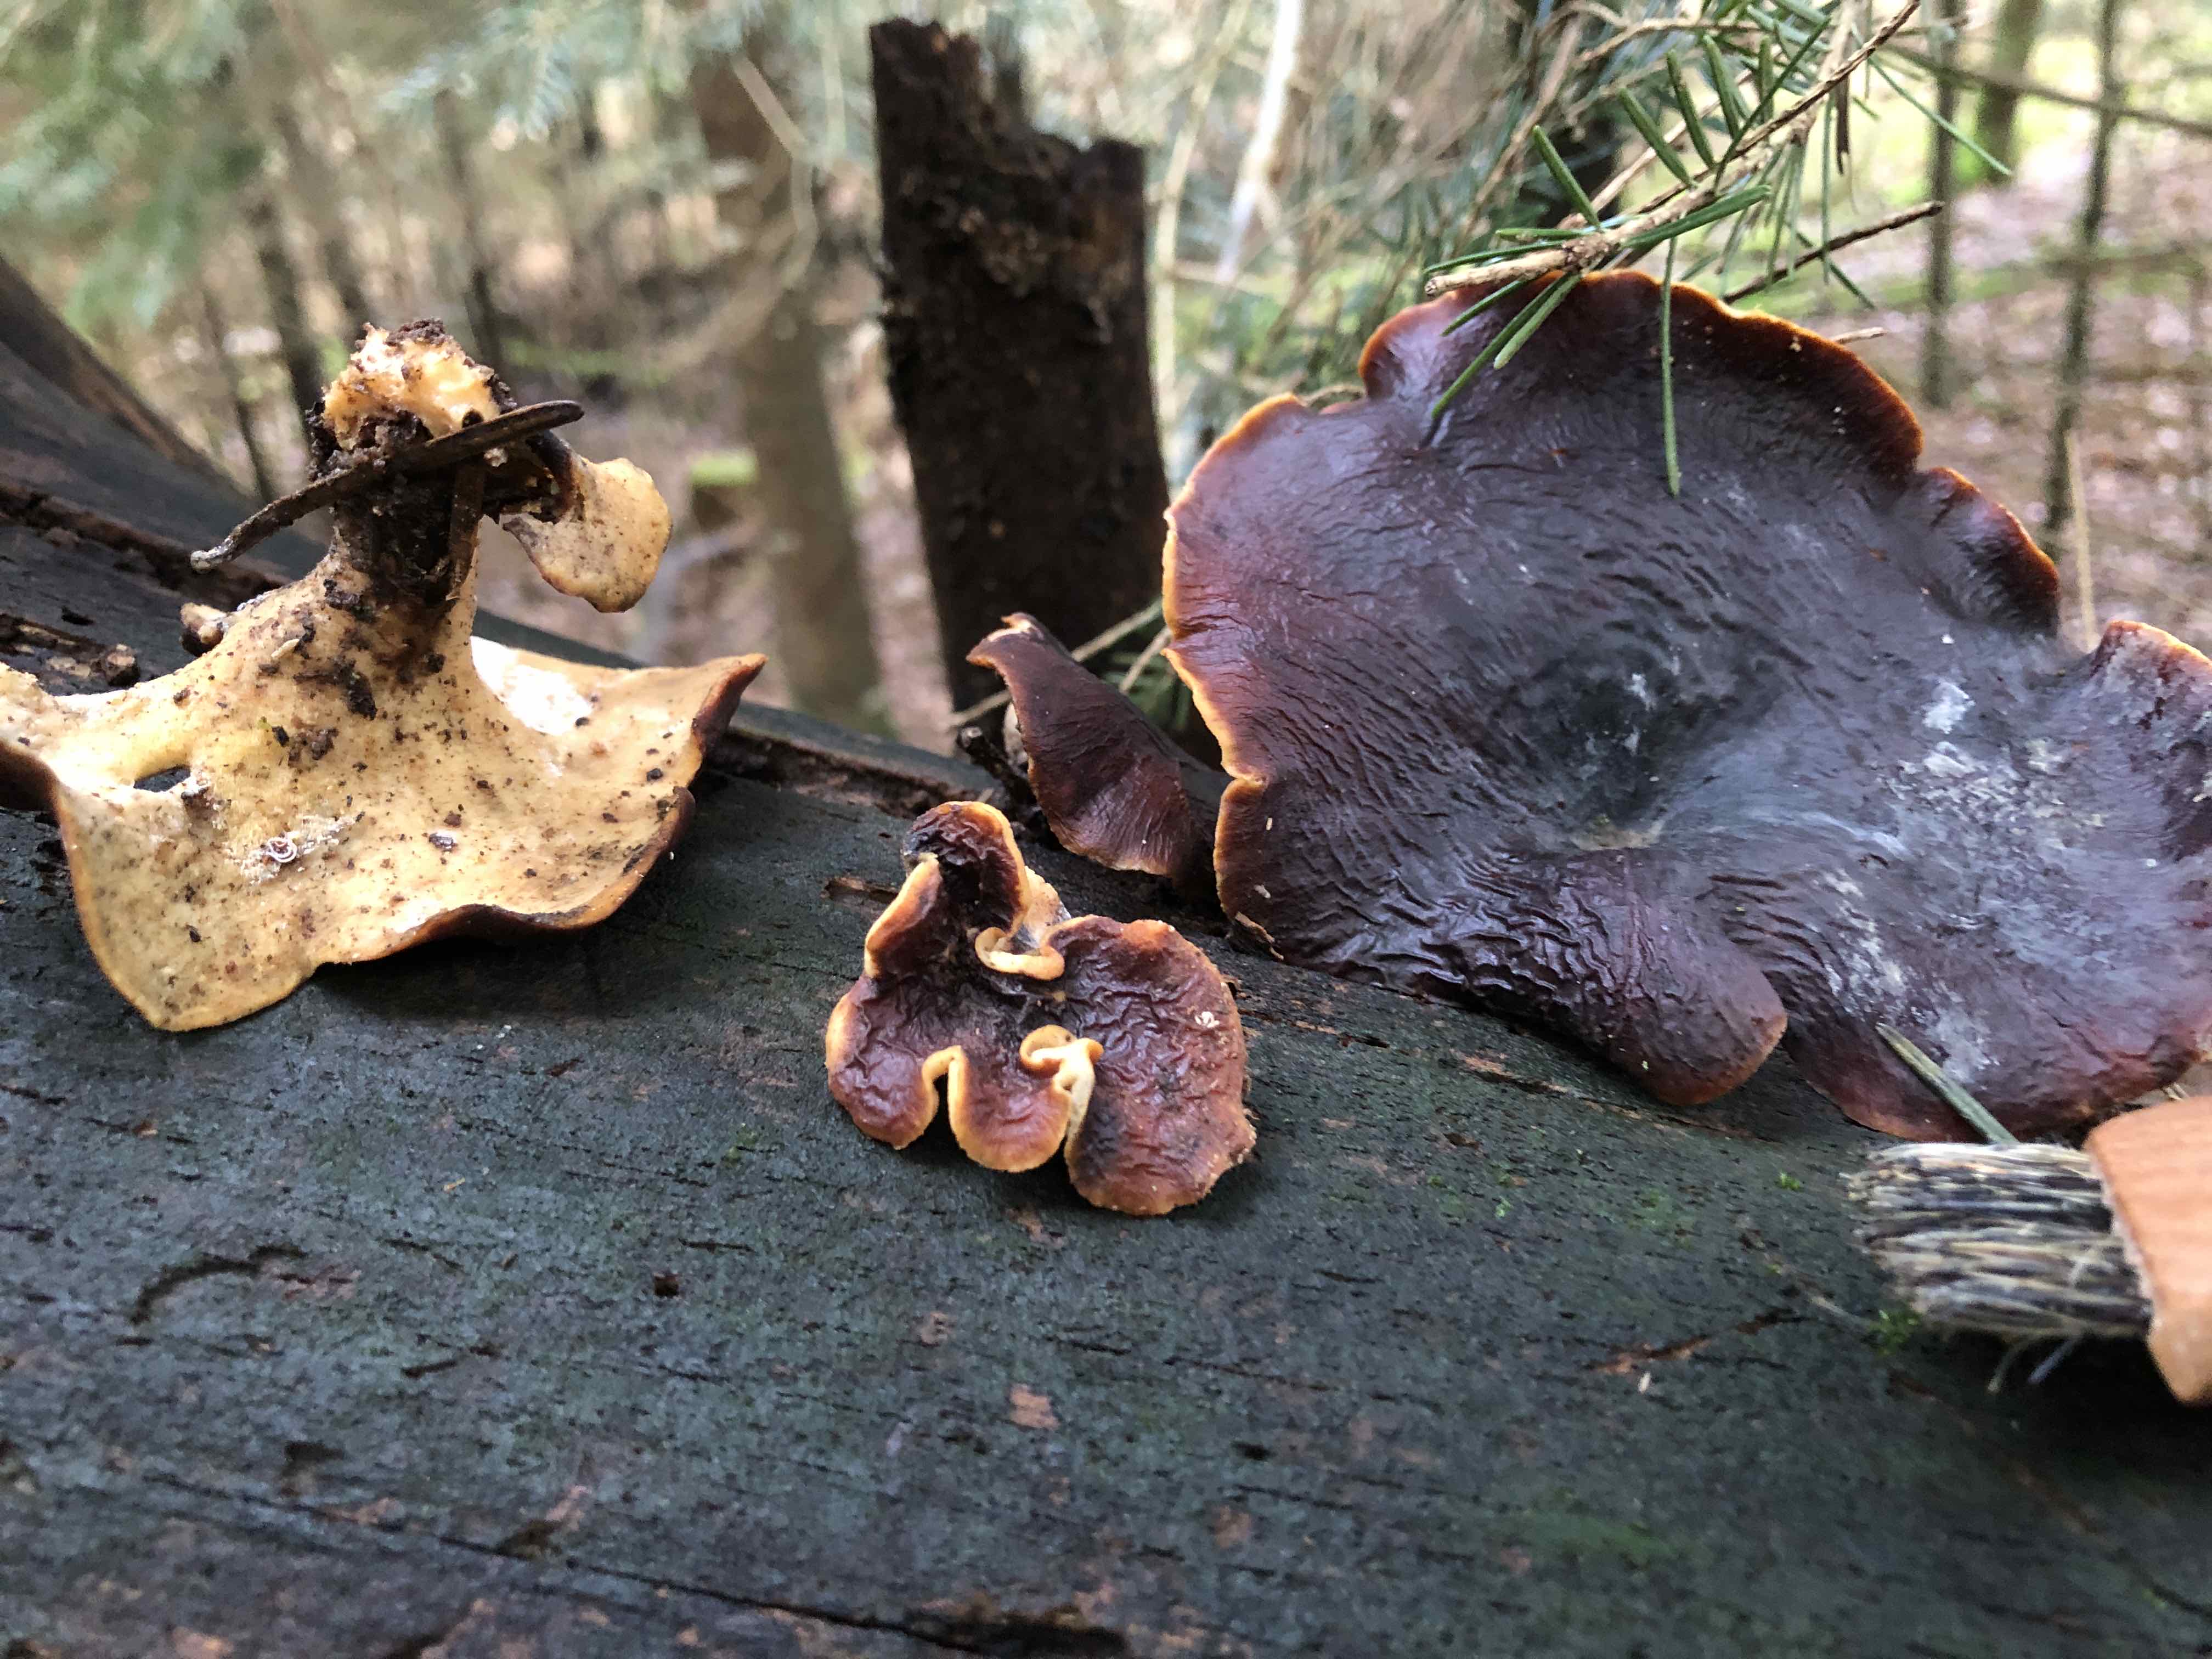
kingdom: Fungi
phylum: Basidiomycota
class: Agaricomycetes
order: Polyporales
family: Polyporaceae
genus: Picipes
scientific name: Picipes badius
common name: kastaniebrun stilkporesvamp
